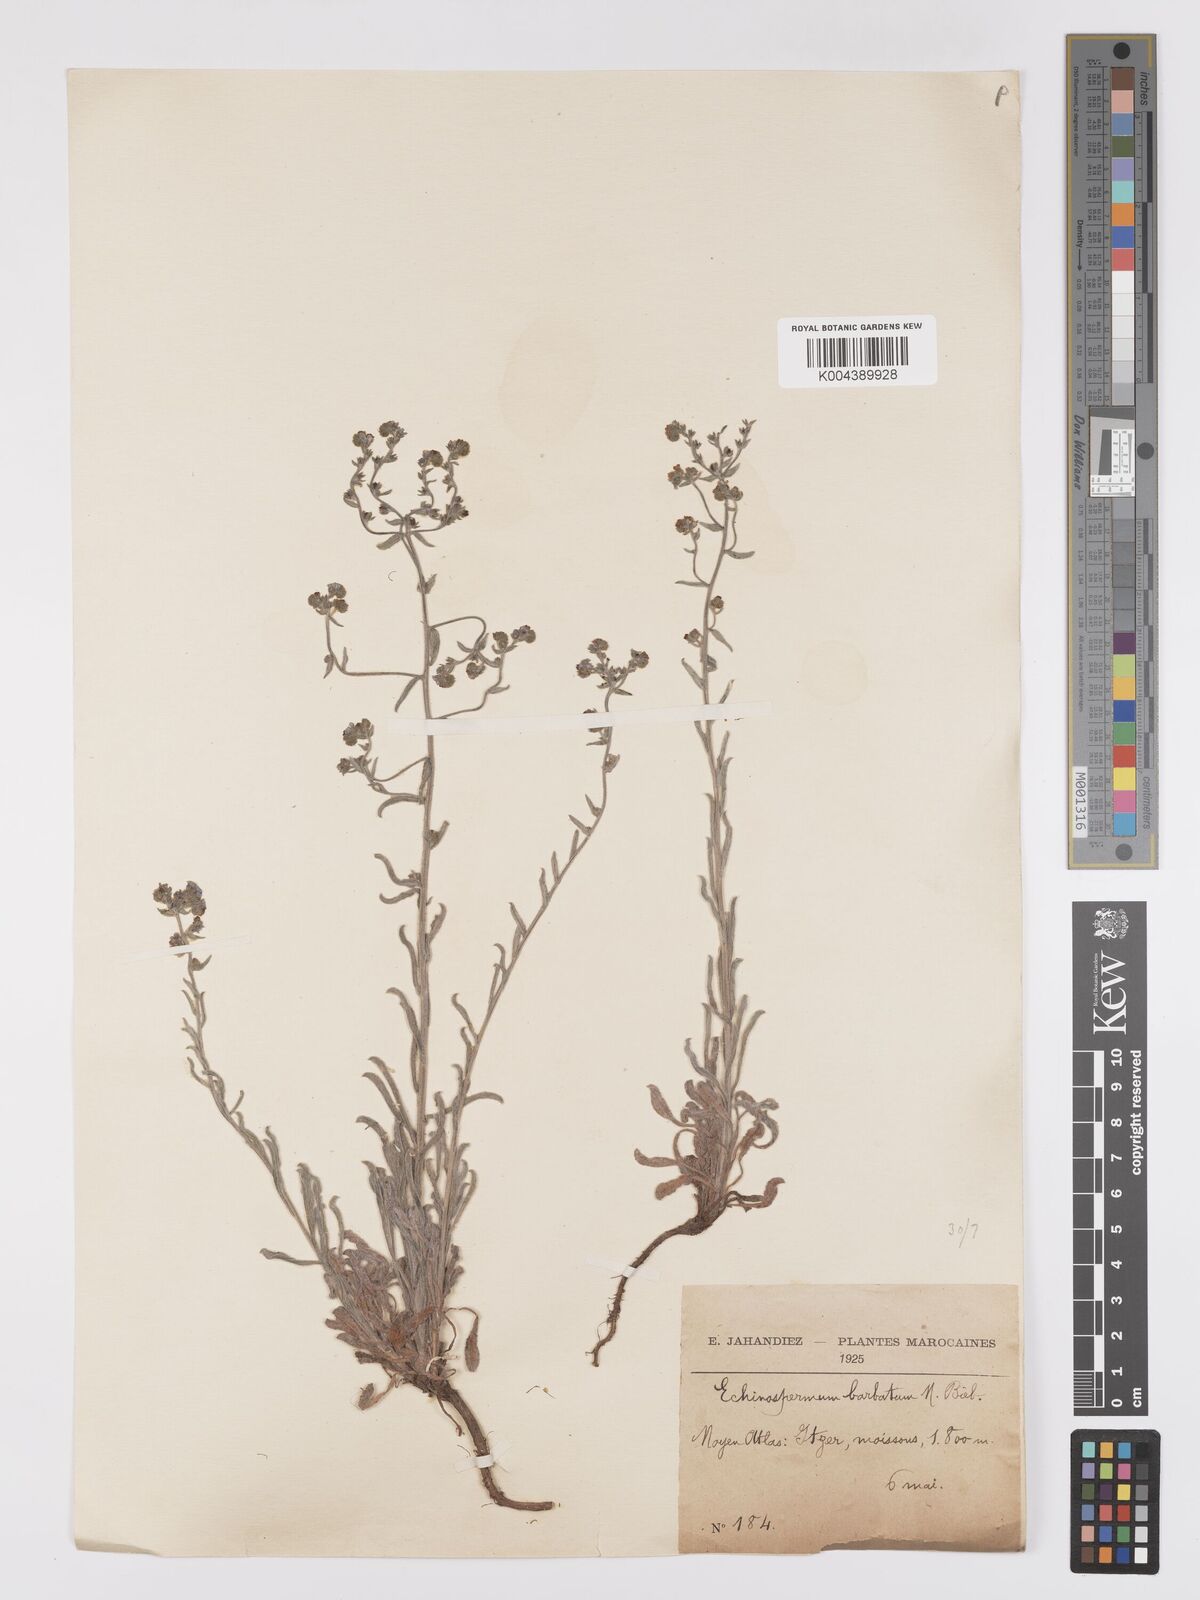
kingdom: Plantae
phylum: Tracheophyta
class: Magnoliopsida
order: Boraginales
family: Boraginaceae
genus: Lappula
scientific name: Lappula barbata
